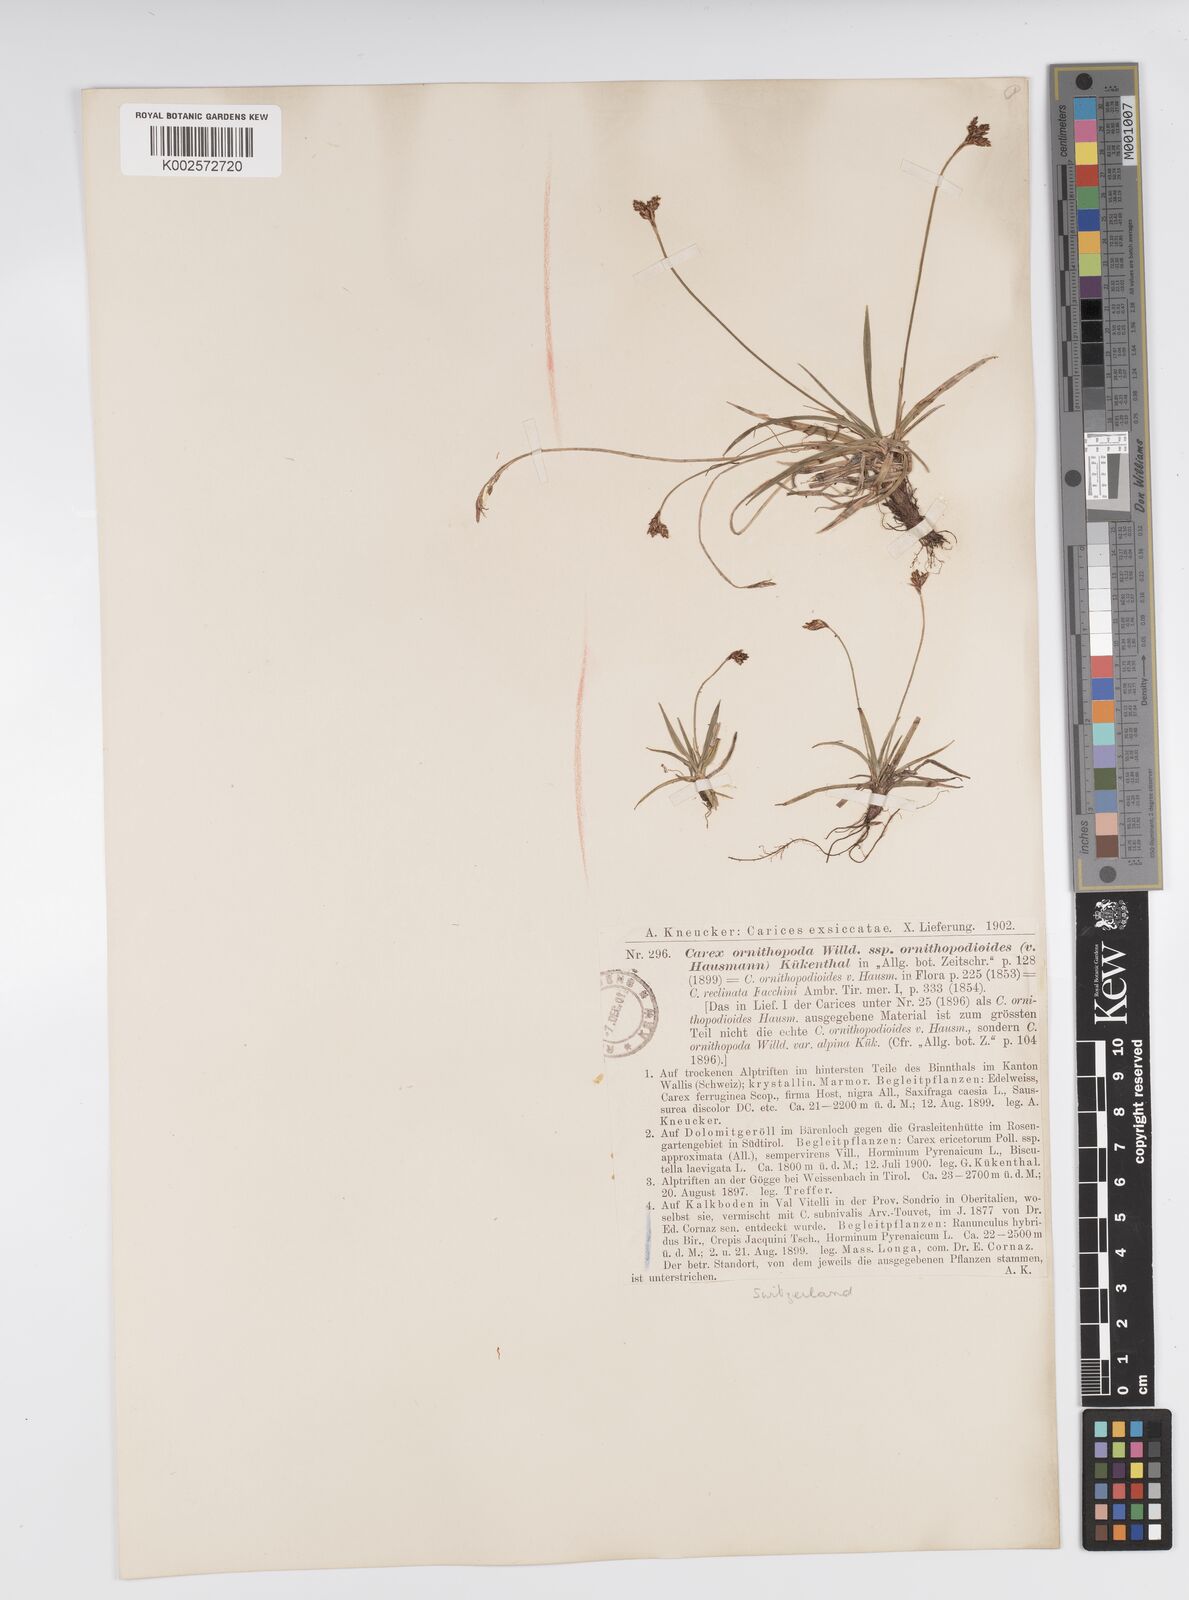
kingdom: Plantae
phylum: Tracheophyta
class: Liliopsida
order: Poales
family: Cyperaceae
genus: Carex
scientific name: Carex ornithopoda
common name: Bird's-foot sedge
